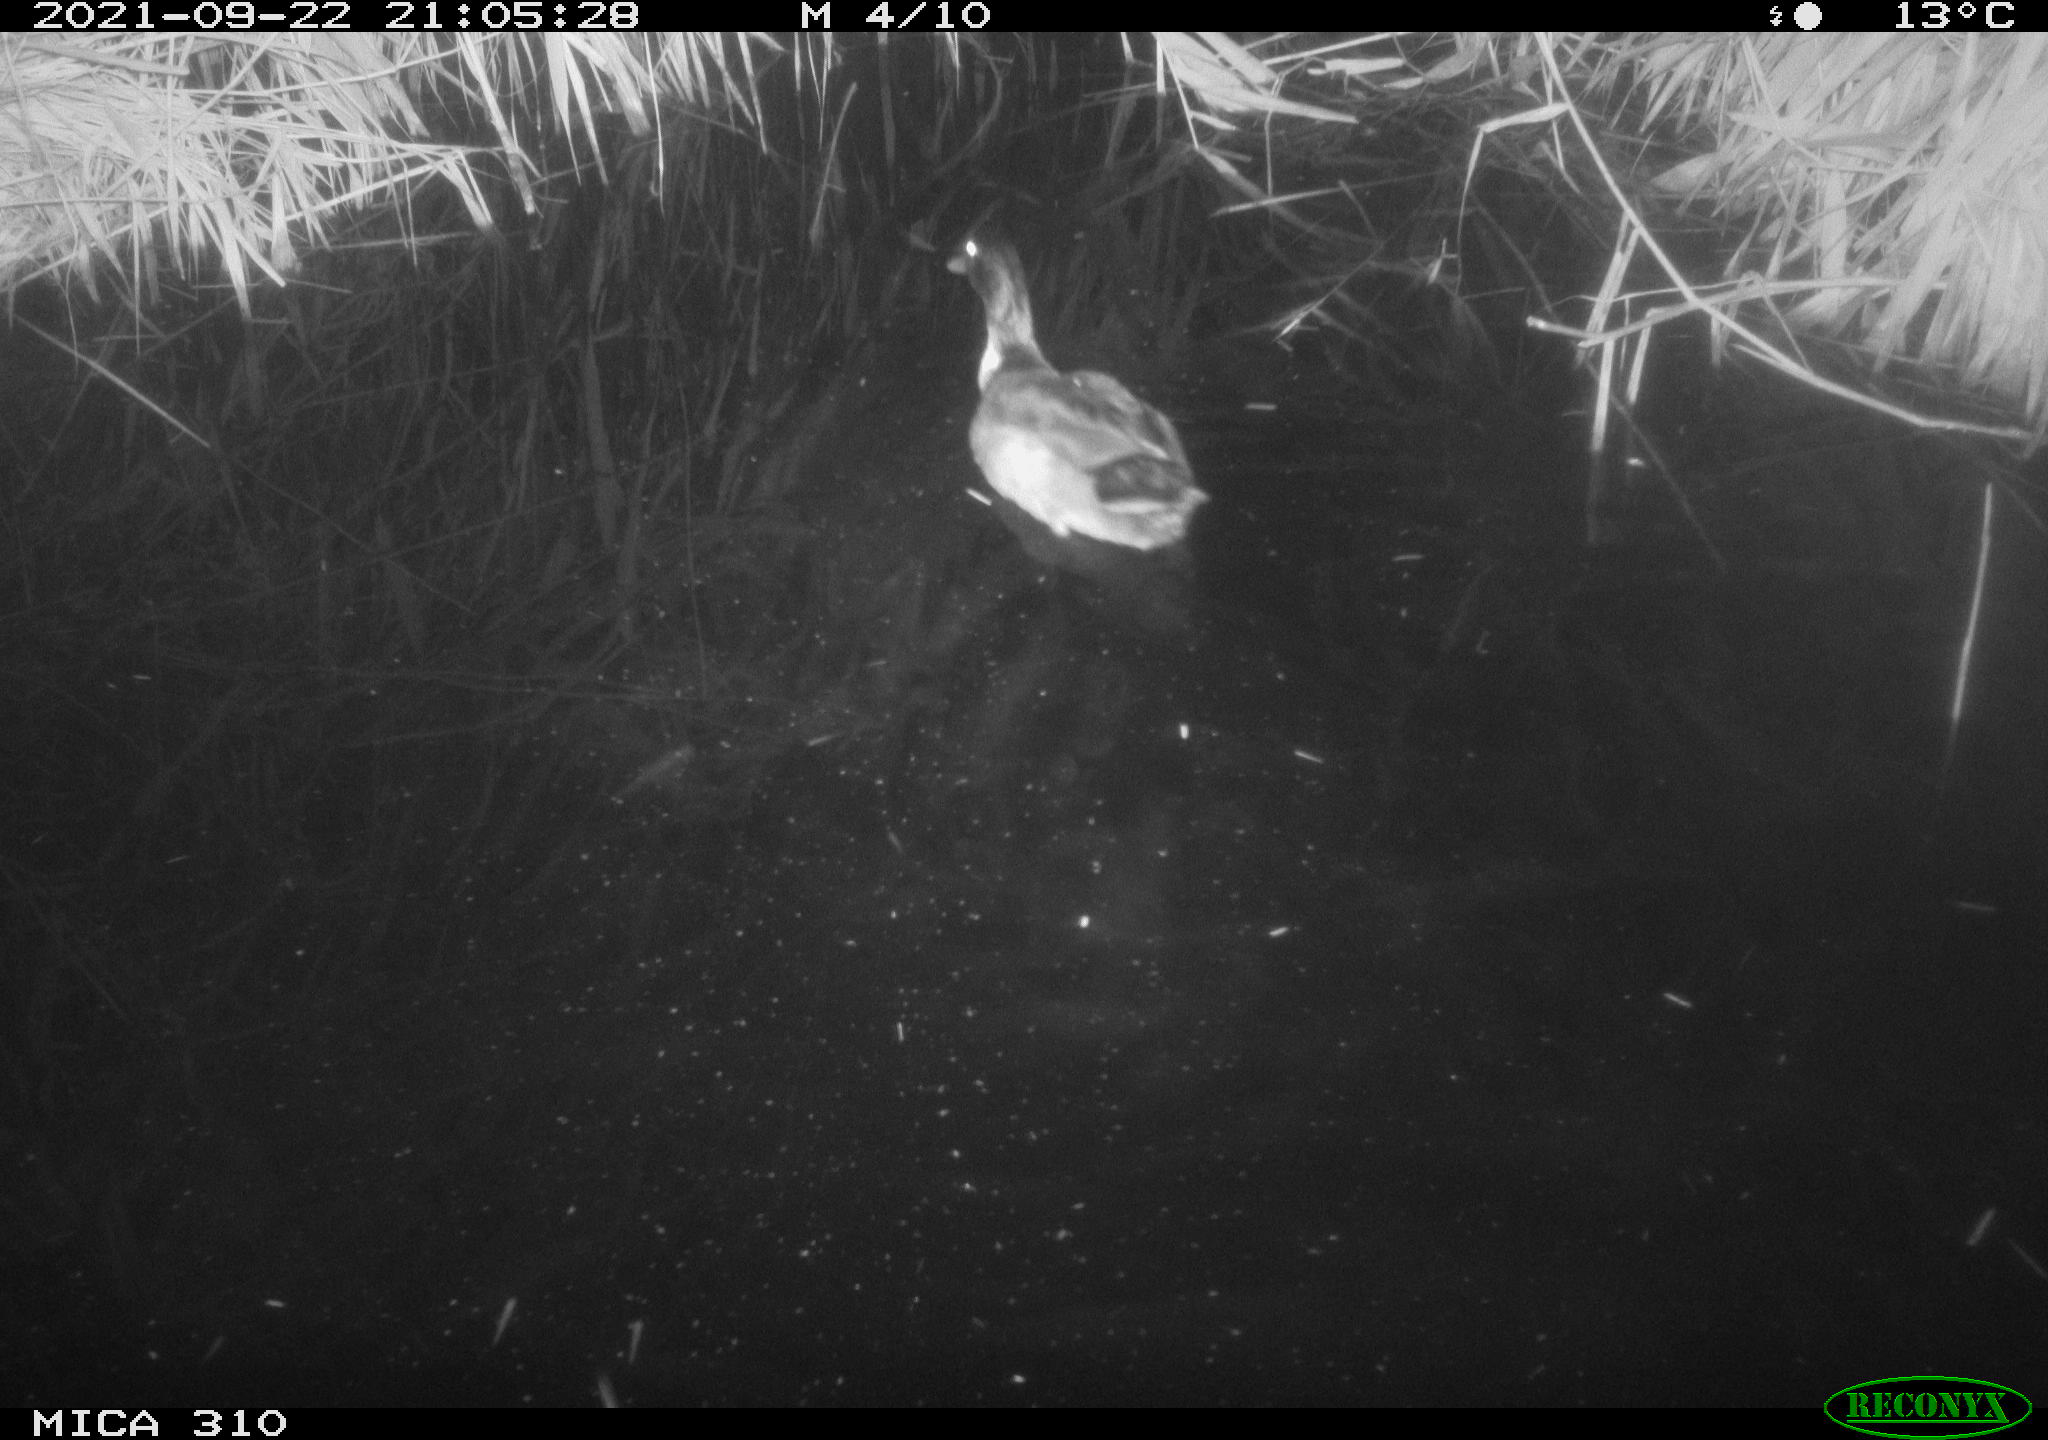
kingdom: Animalia
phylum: Chordata
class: Aves
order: Anseriformes
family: Anatidae
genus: Anas
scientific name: Anas platyrhynchos
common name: Mallard
